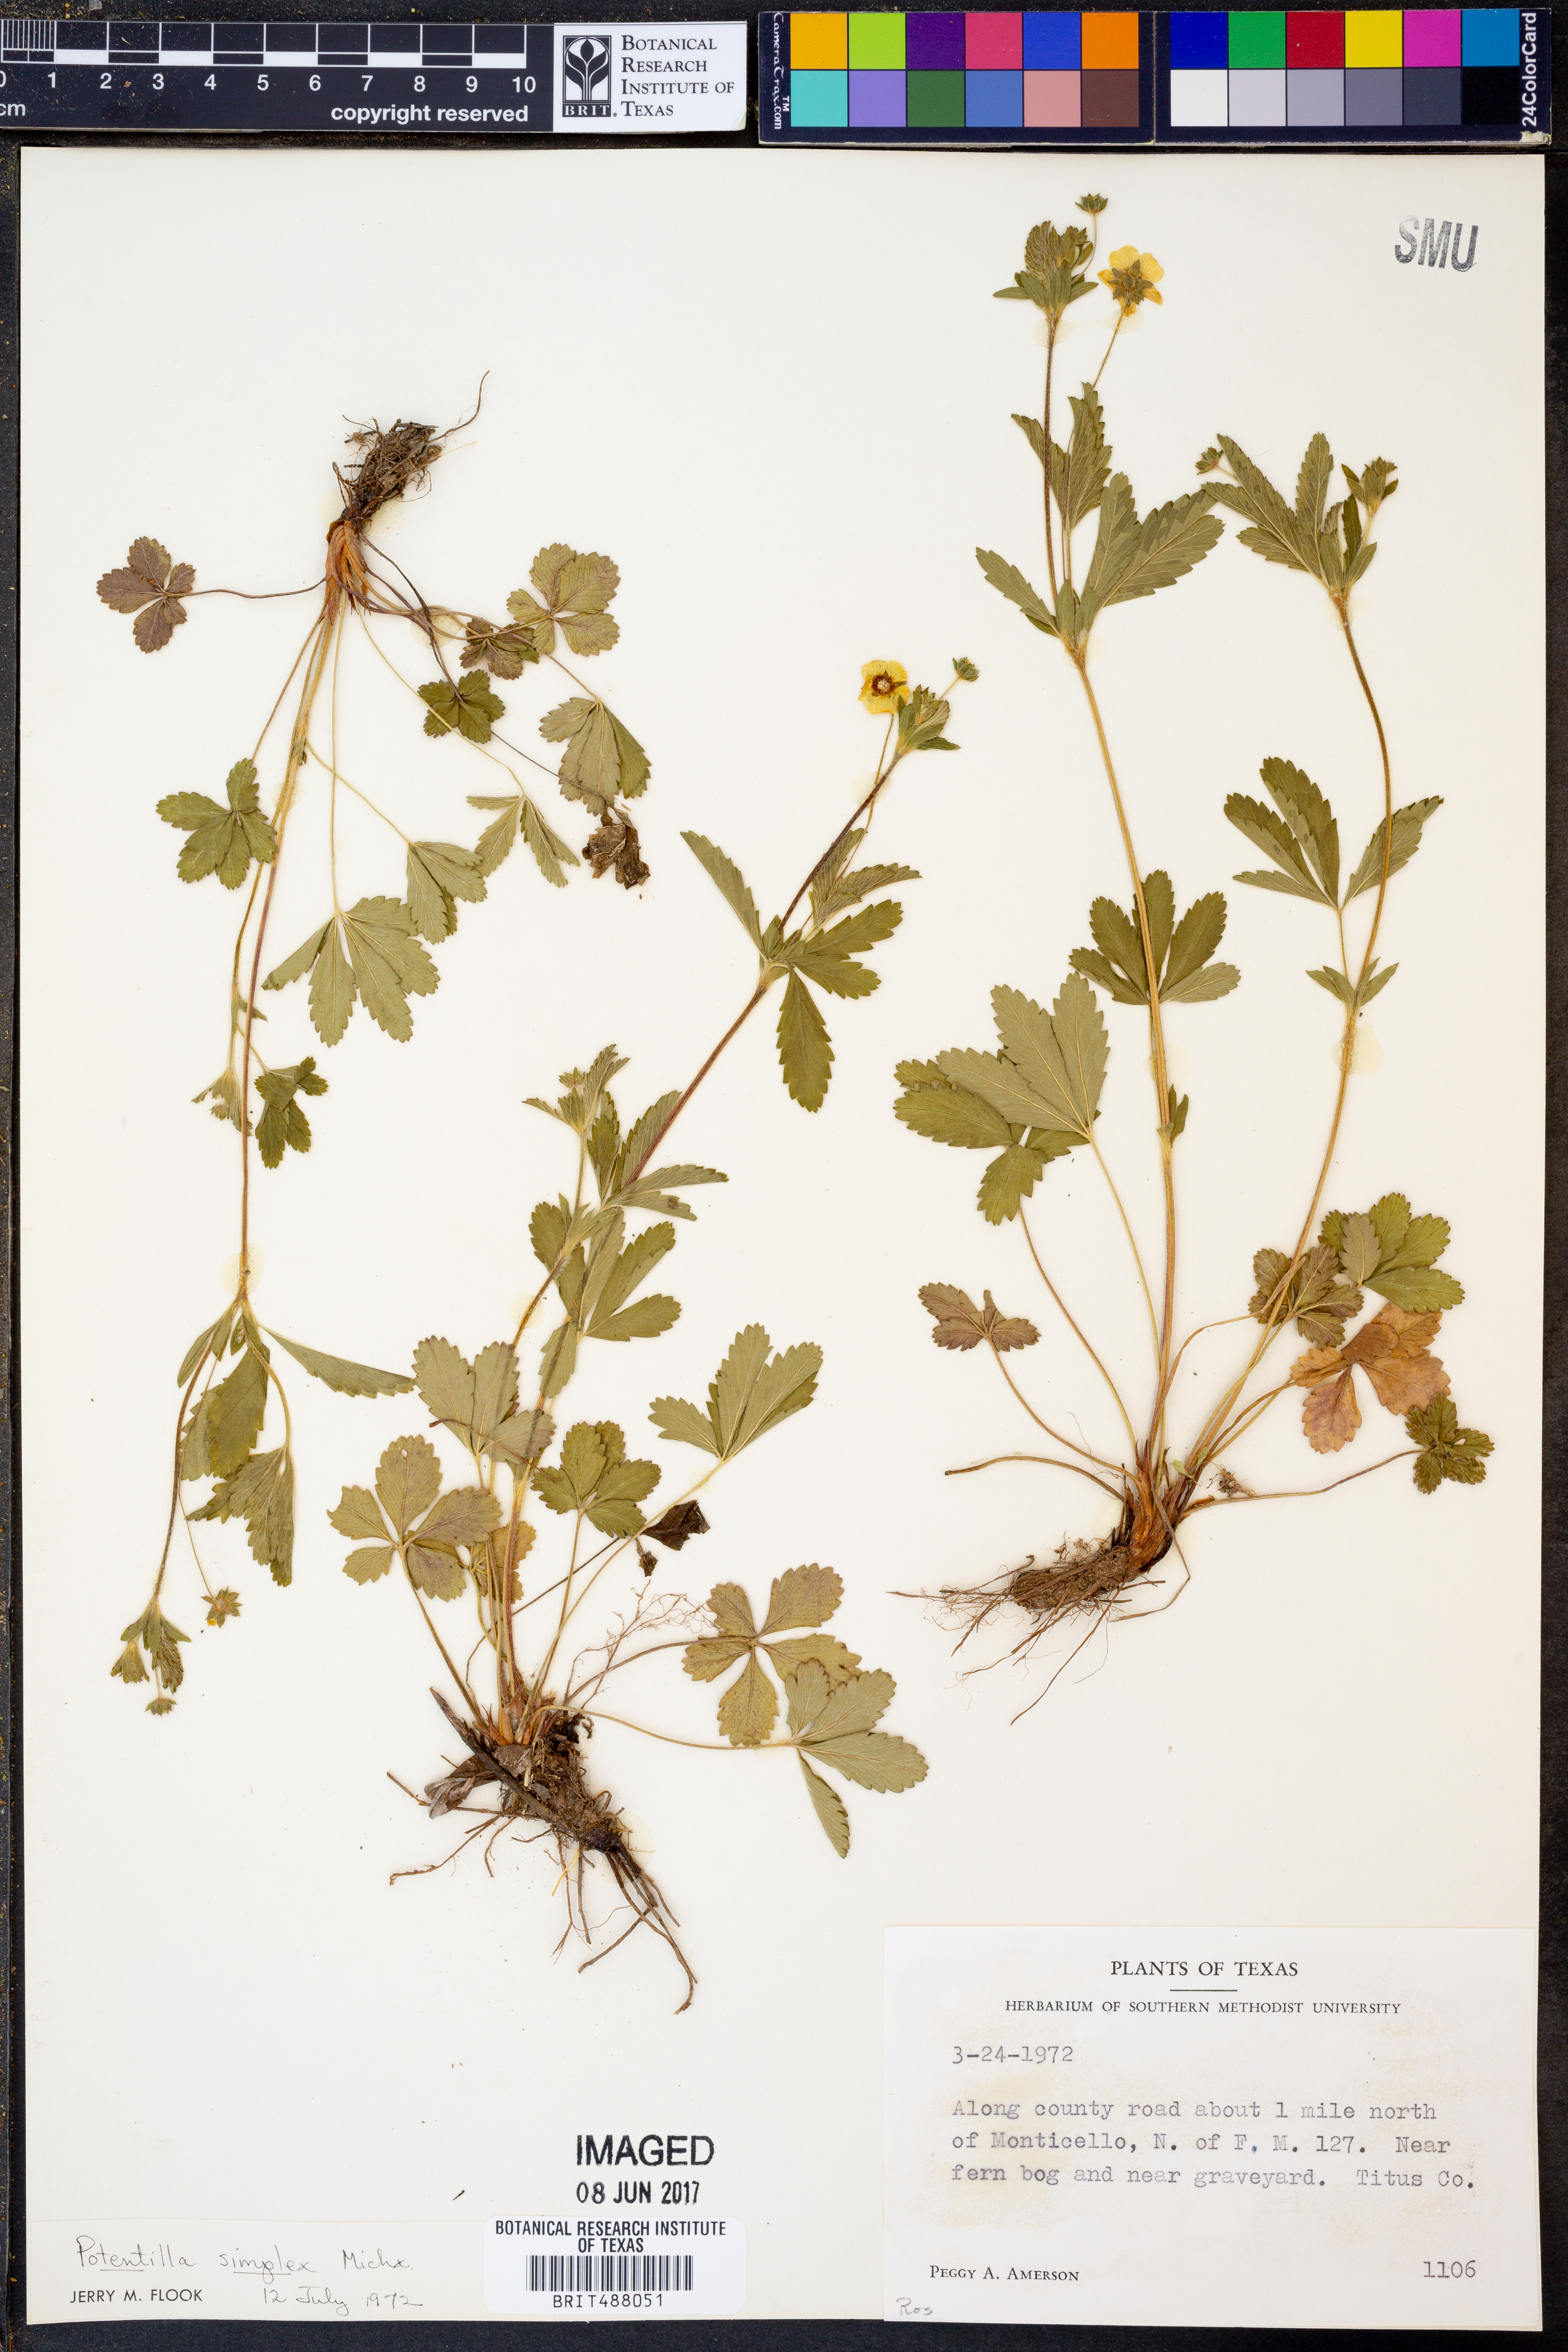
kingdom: Plantae
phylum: Tracheophyta
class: Magnoliopsida
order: Rosales
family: Rosaceae
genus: Potentilla
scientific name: Potentilla simplex
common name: Old field cinquefoil
